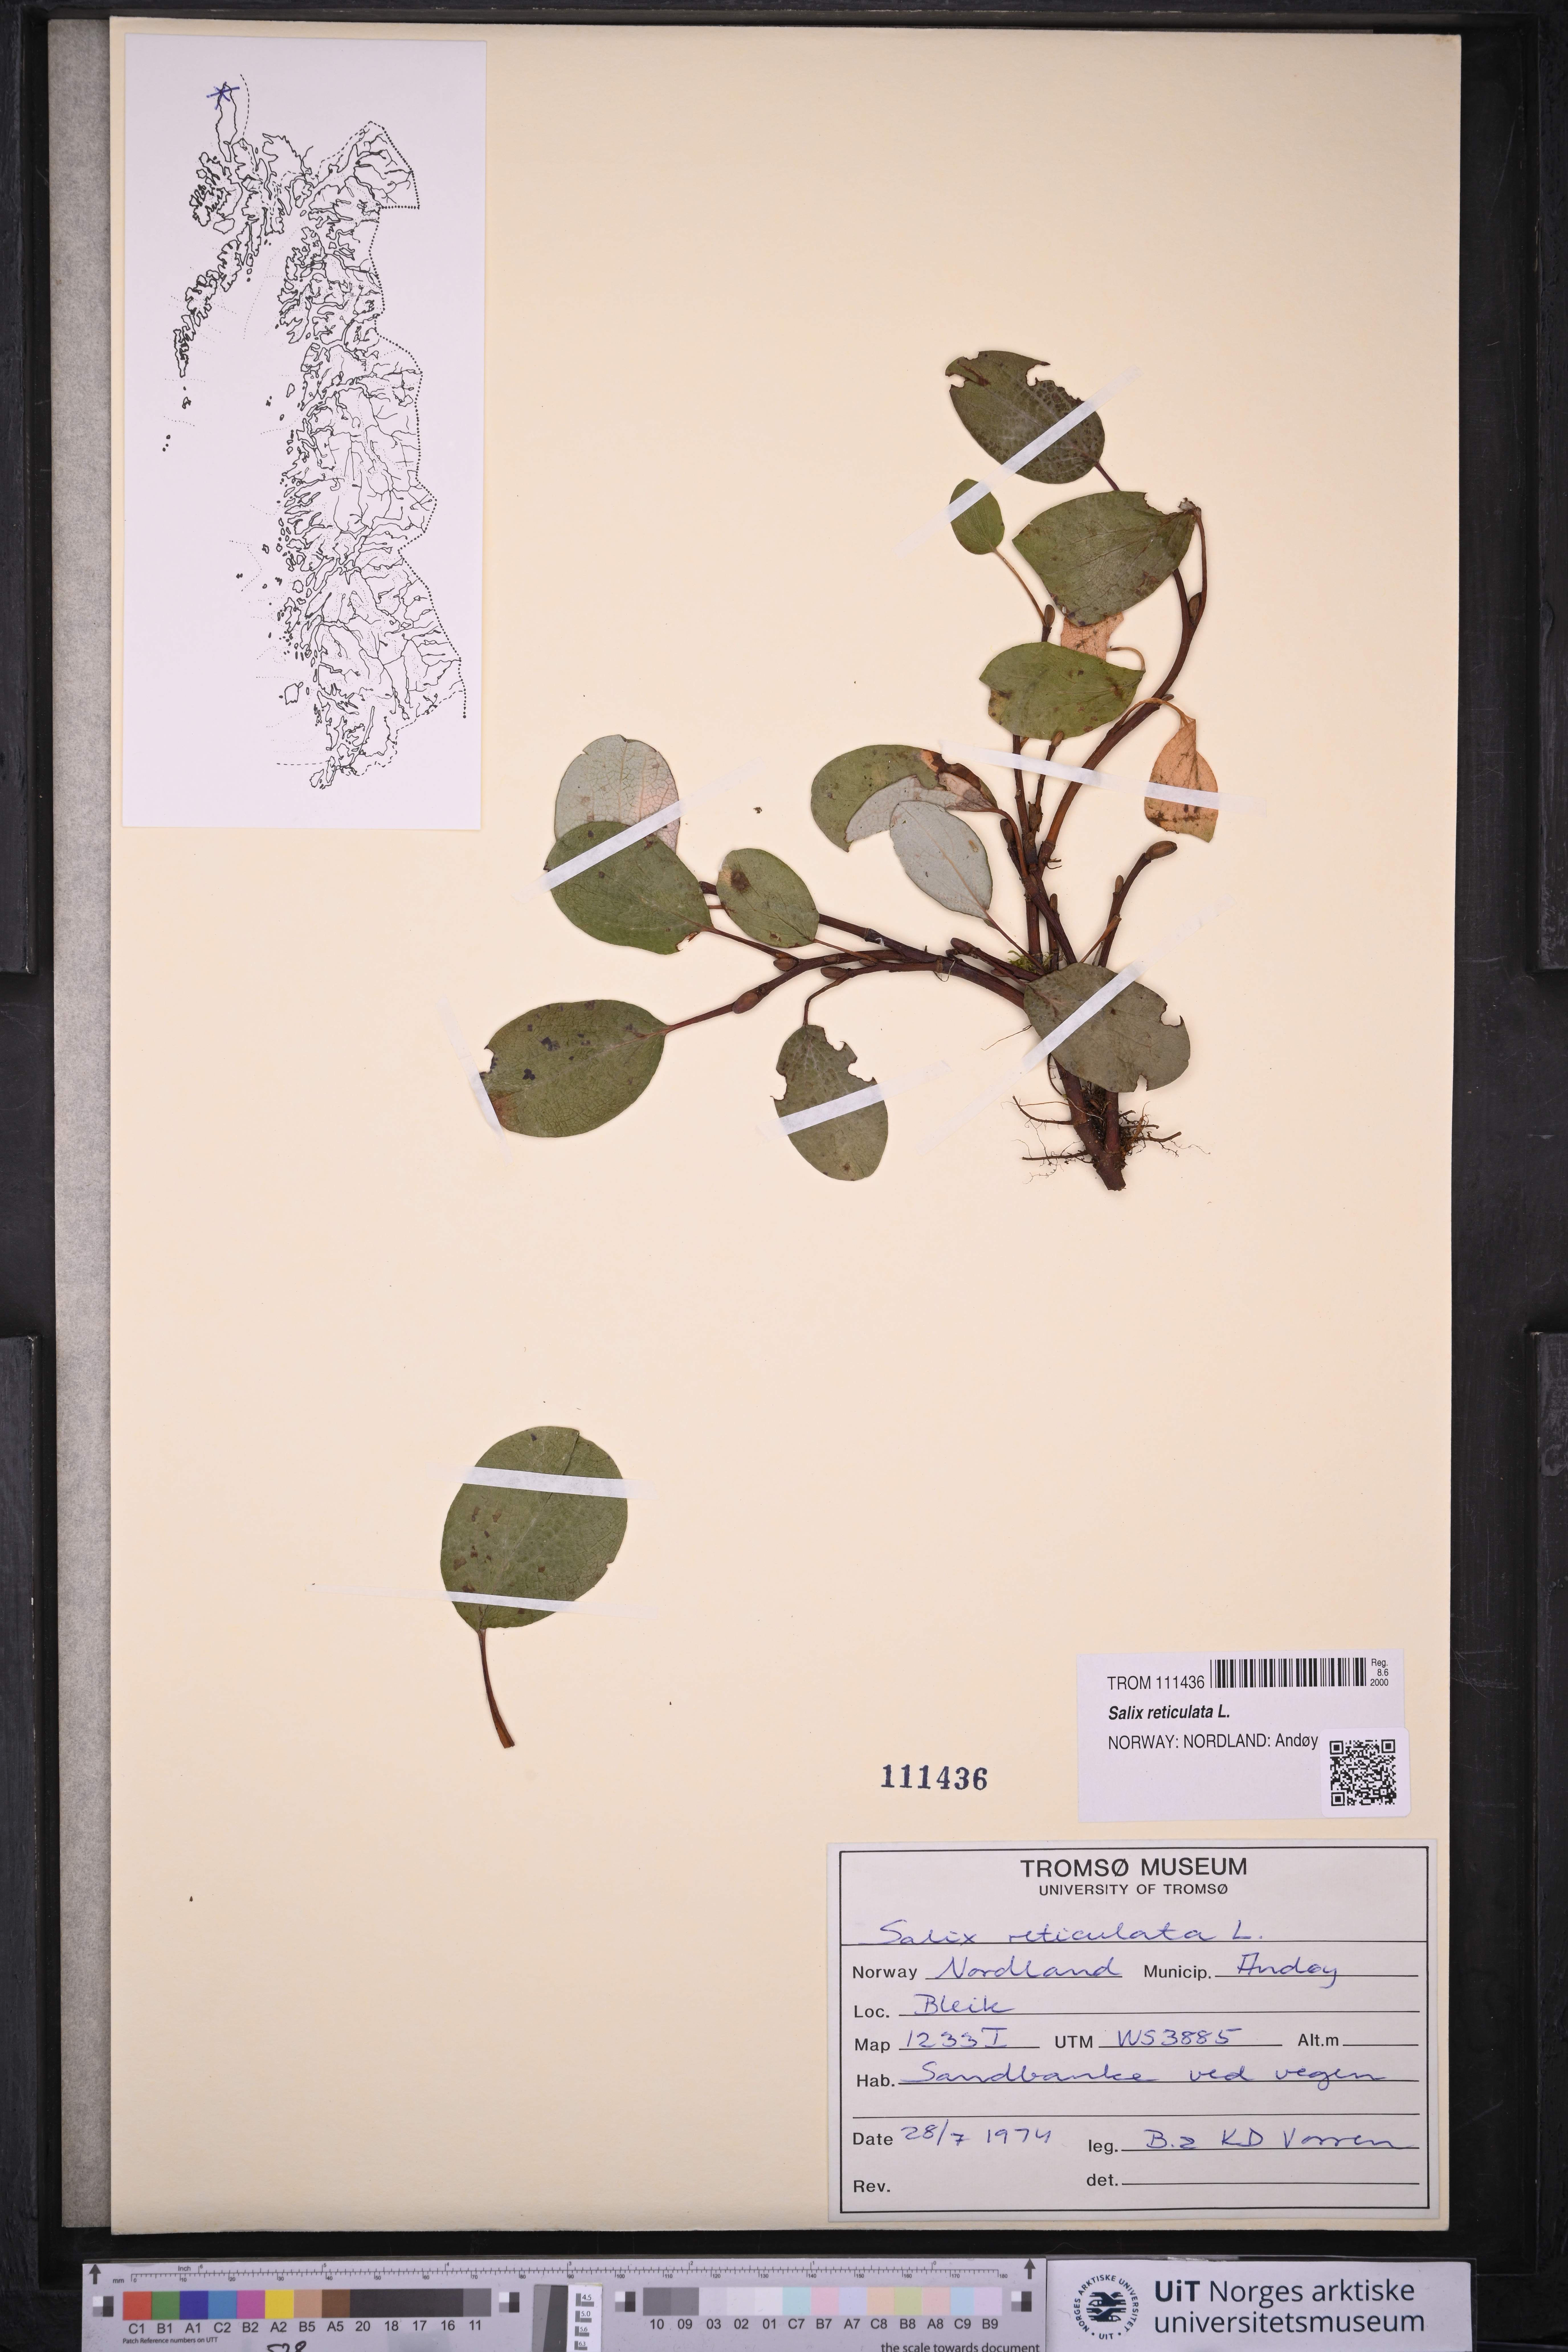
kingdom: Plantae
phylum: Tracheophyta
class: Magnoliopsida
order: Malpighiales
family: Salicaceae
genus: Salix
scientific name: Salix reticulata
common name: Net-leaved willow
